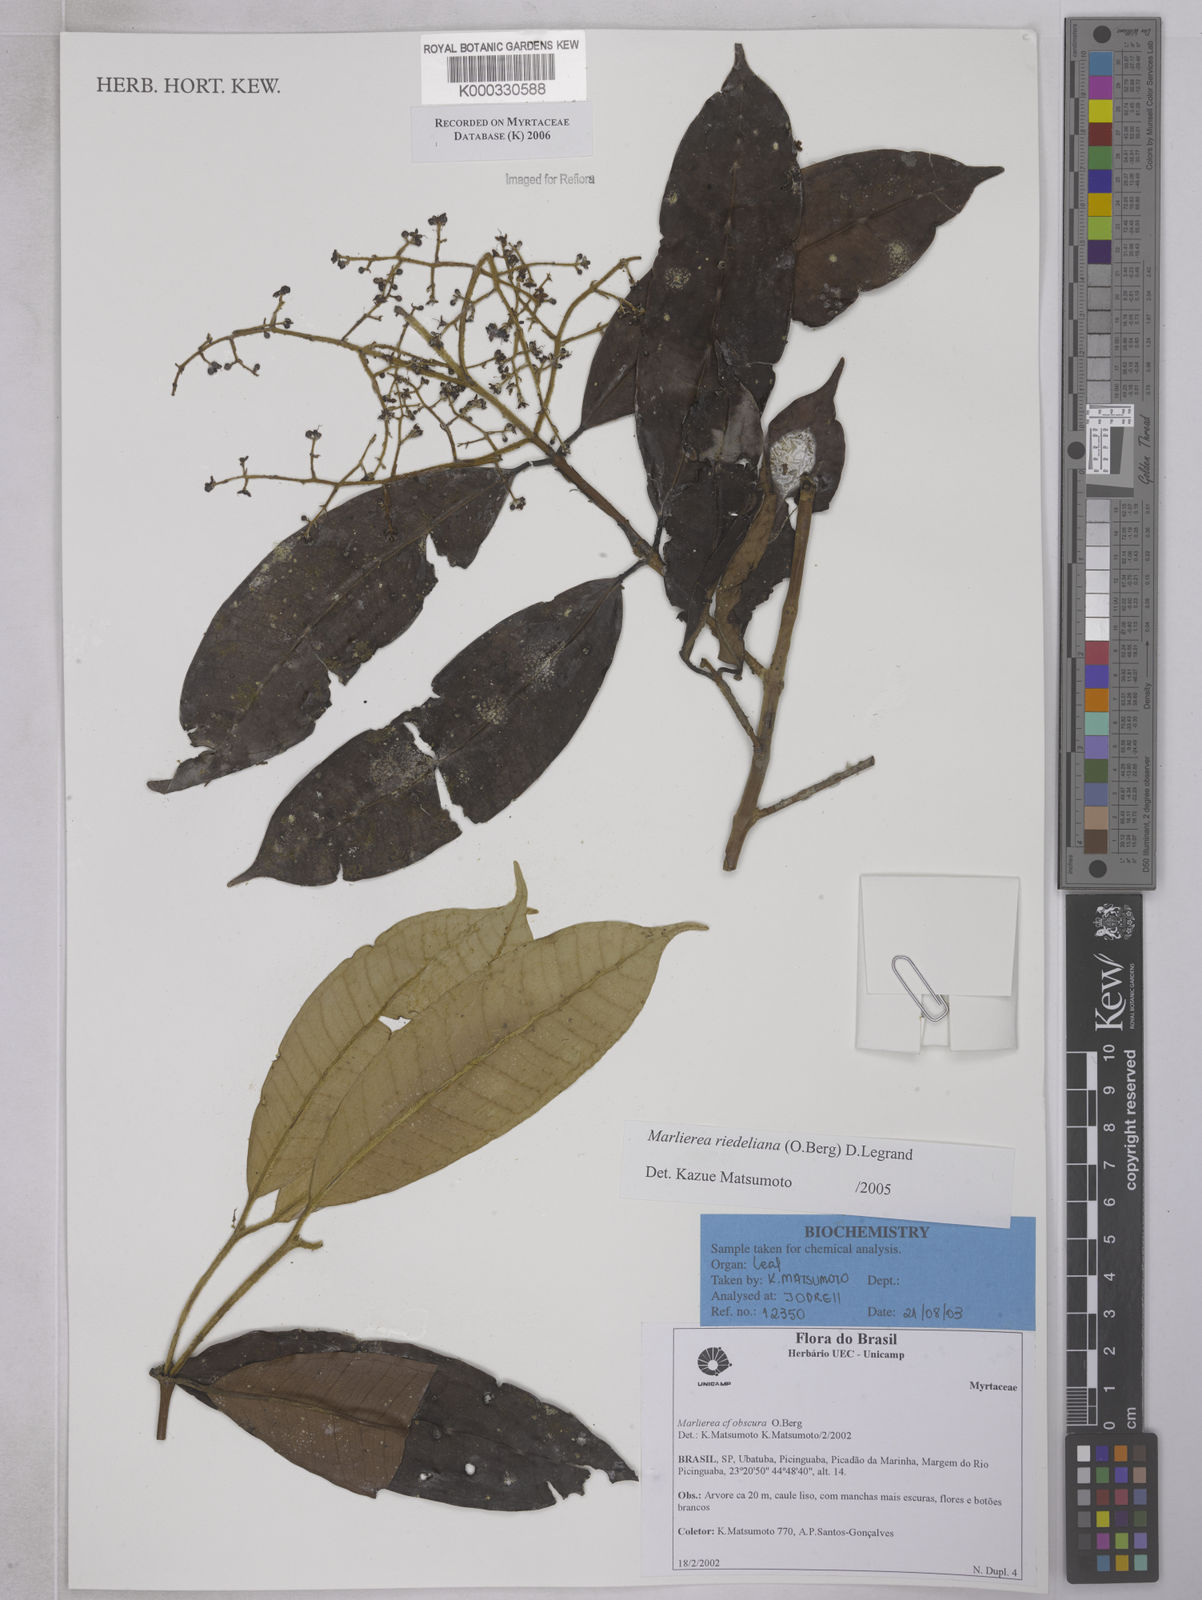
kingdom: Plantae
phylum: Tracheophyta
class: Magnoliopsida
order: Myrtales
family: Myrtaceae
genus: Myrcia
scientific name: Myrcia neoriedeliana
